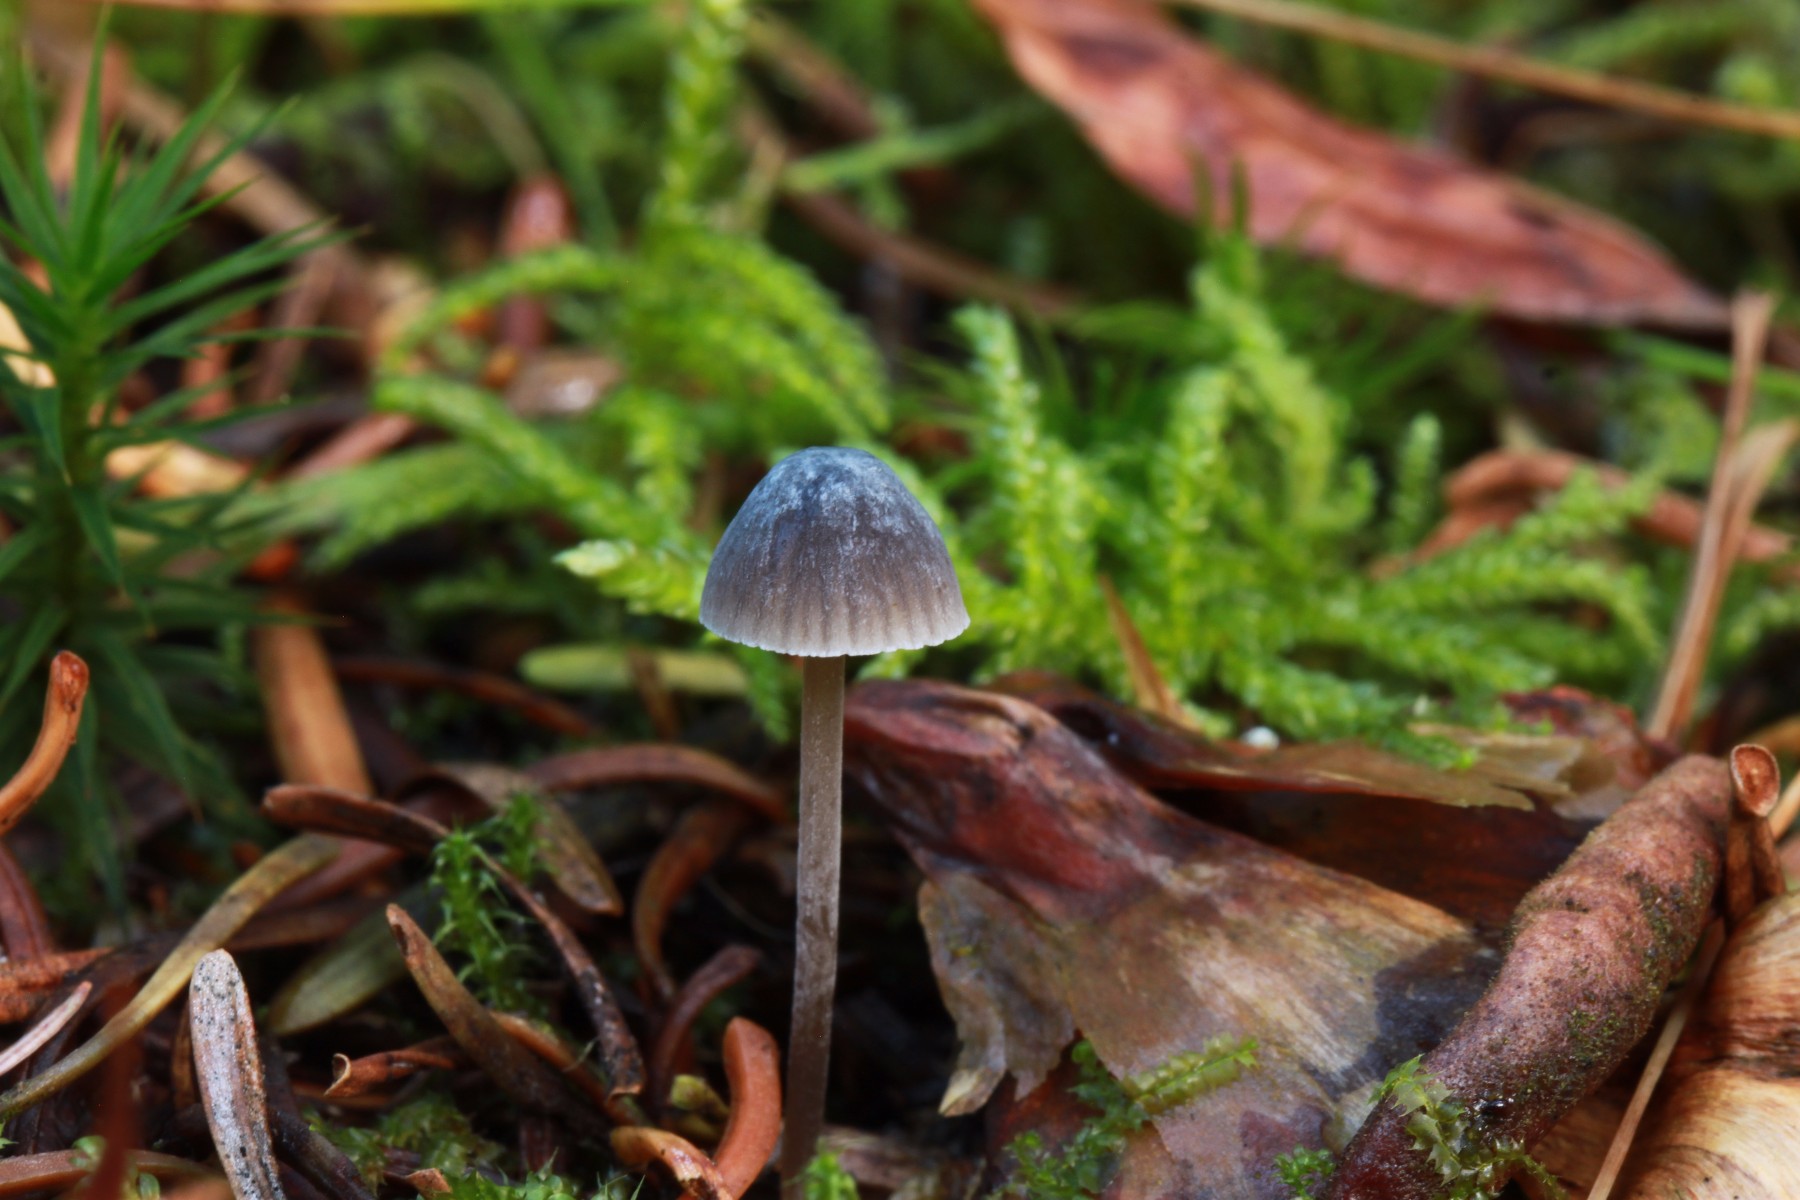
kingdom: Fungi
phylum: Basidiomycota
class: Agaricomycetes
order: Agaricales
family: Mycenaceae
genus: Mycena
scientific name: Mycena septentrionalis
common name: pelargonie-huesvamp
